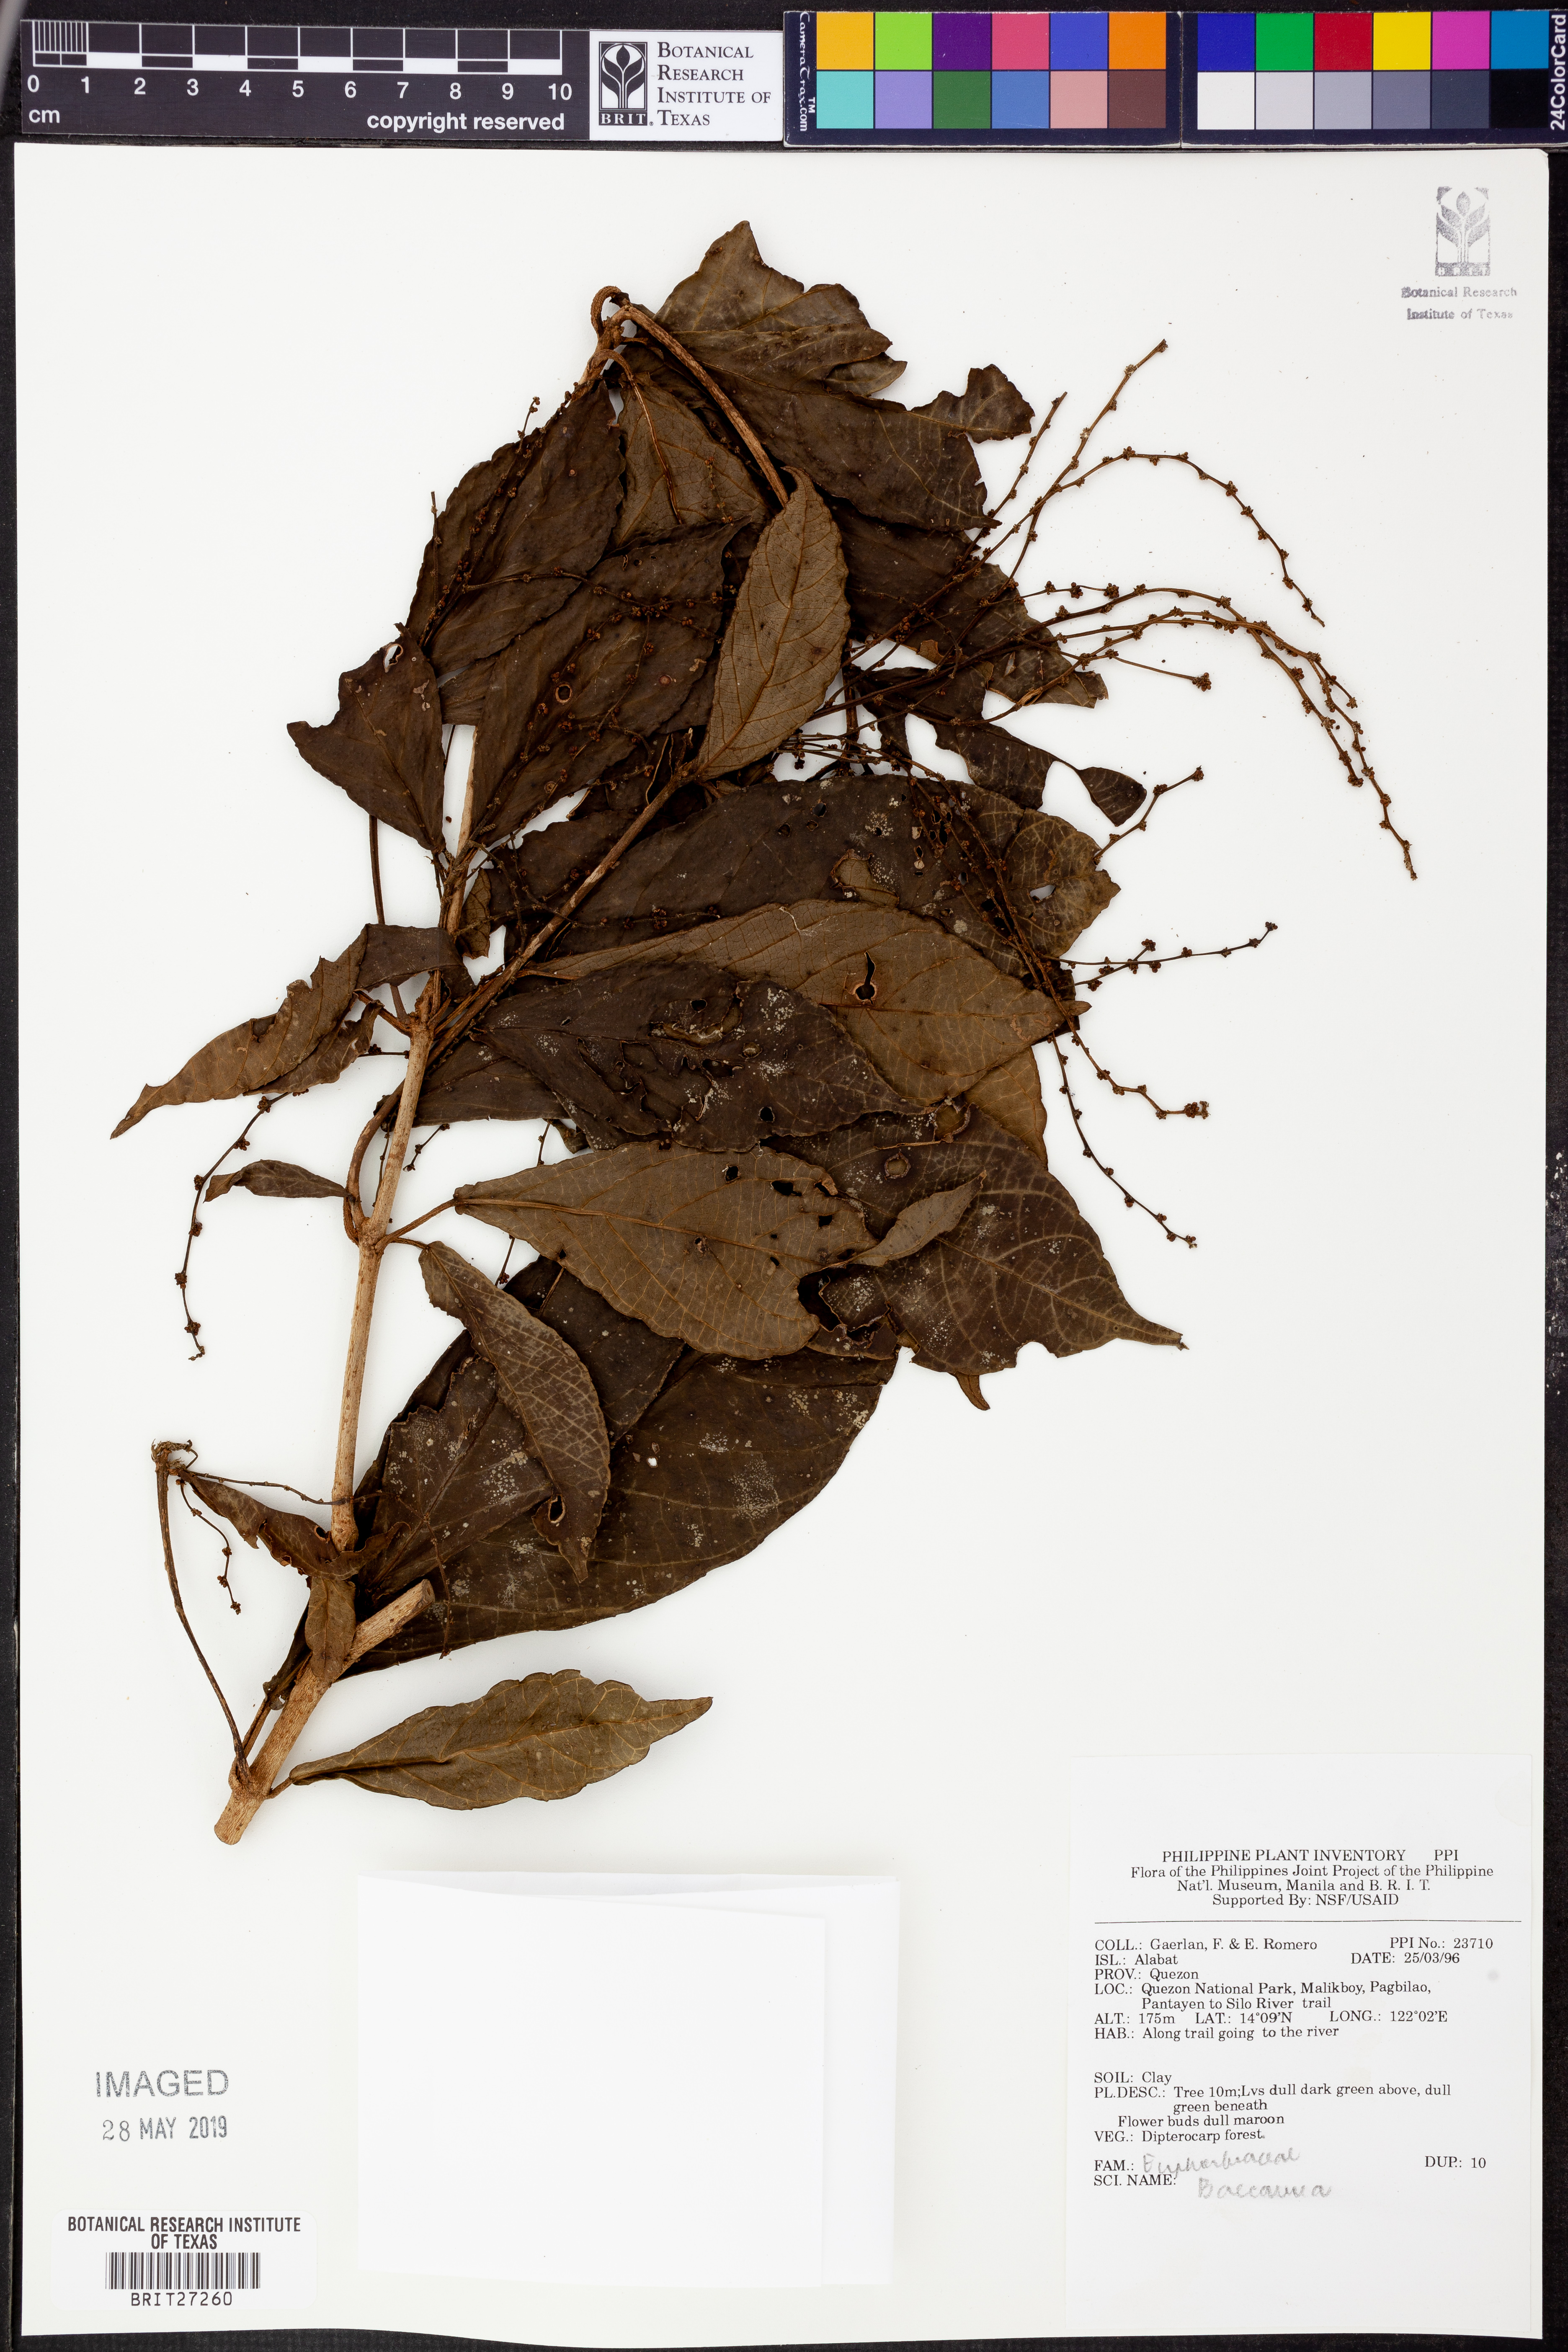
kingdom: Plantae
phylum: Tracheophyta
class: Magnoliopsida
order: Malpighiales
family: Phyllanthaceae
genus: Baccaurea
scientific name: Baccaurea
